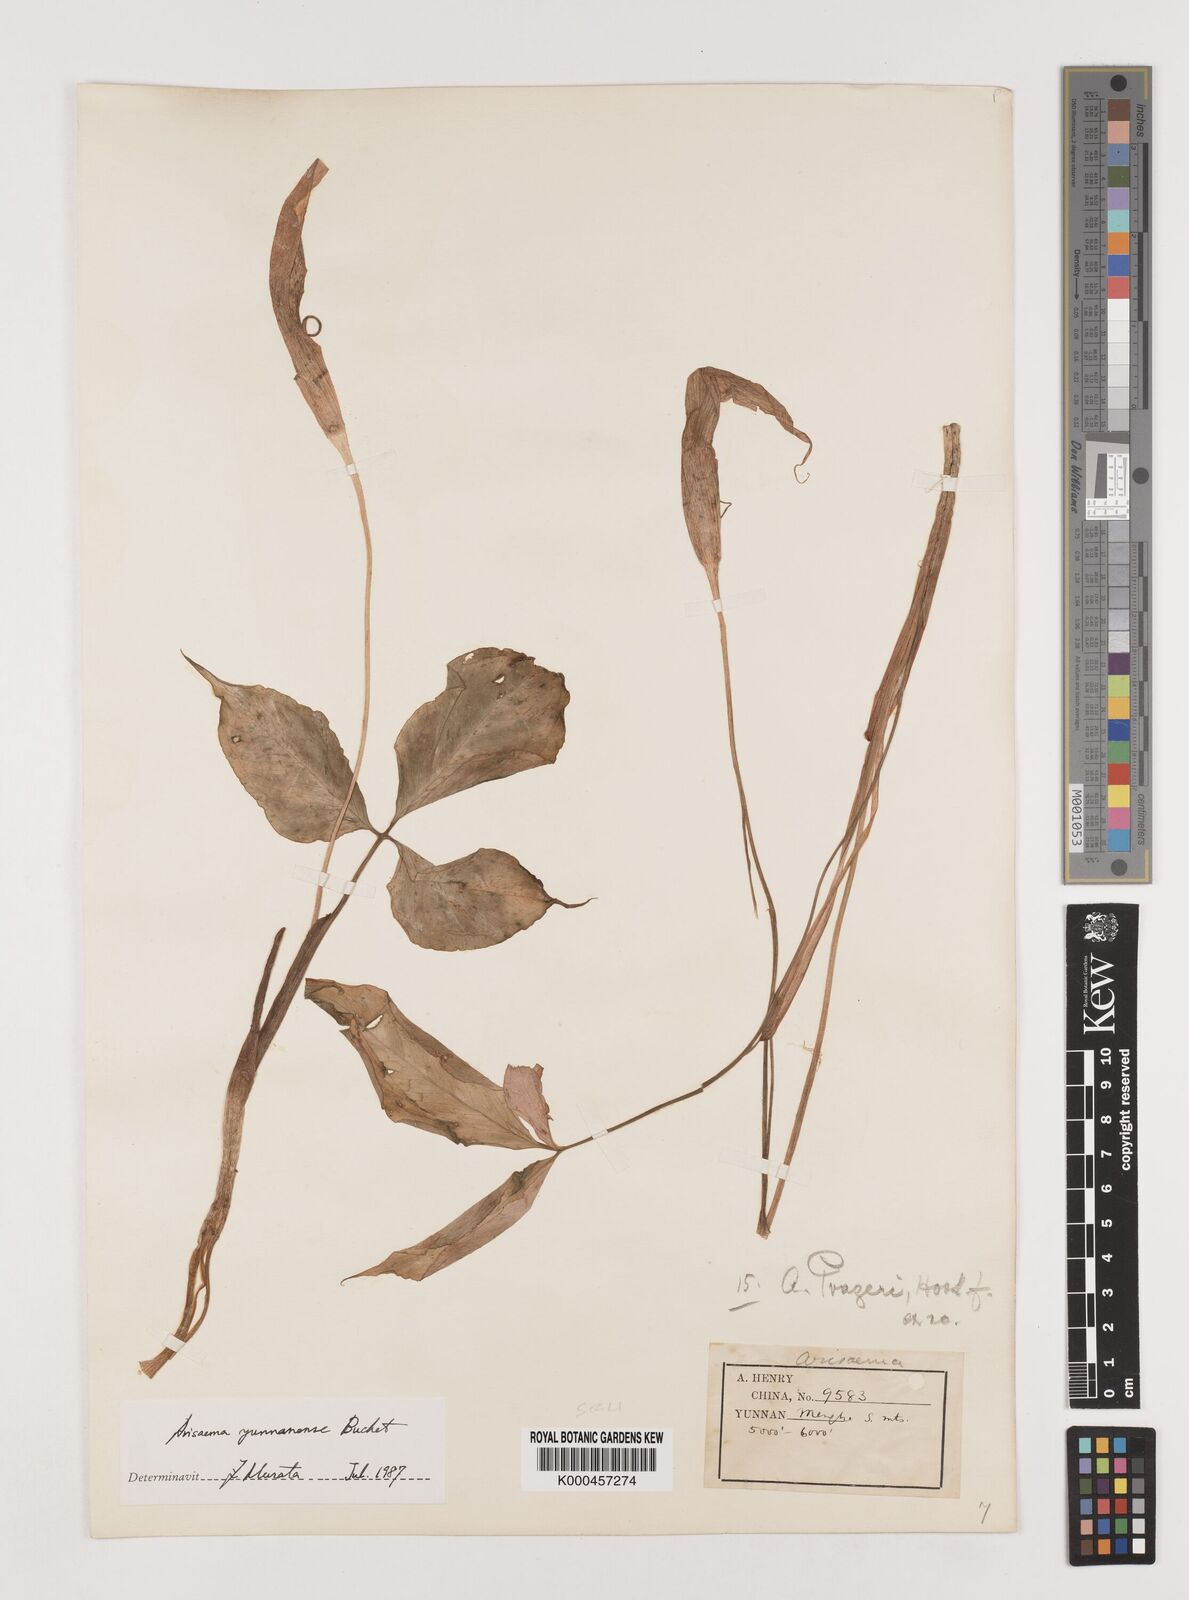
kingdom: Plantae
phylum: Tracheophyta
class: Liliopsida
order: Alismatales
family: Araceae
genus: Arisaema
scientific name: Arisaema yunnanense
